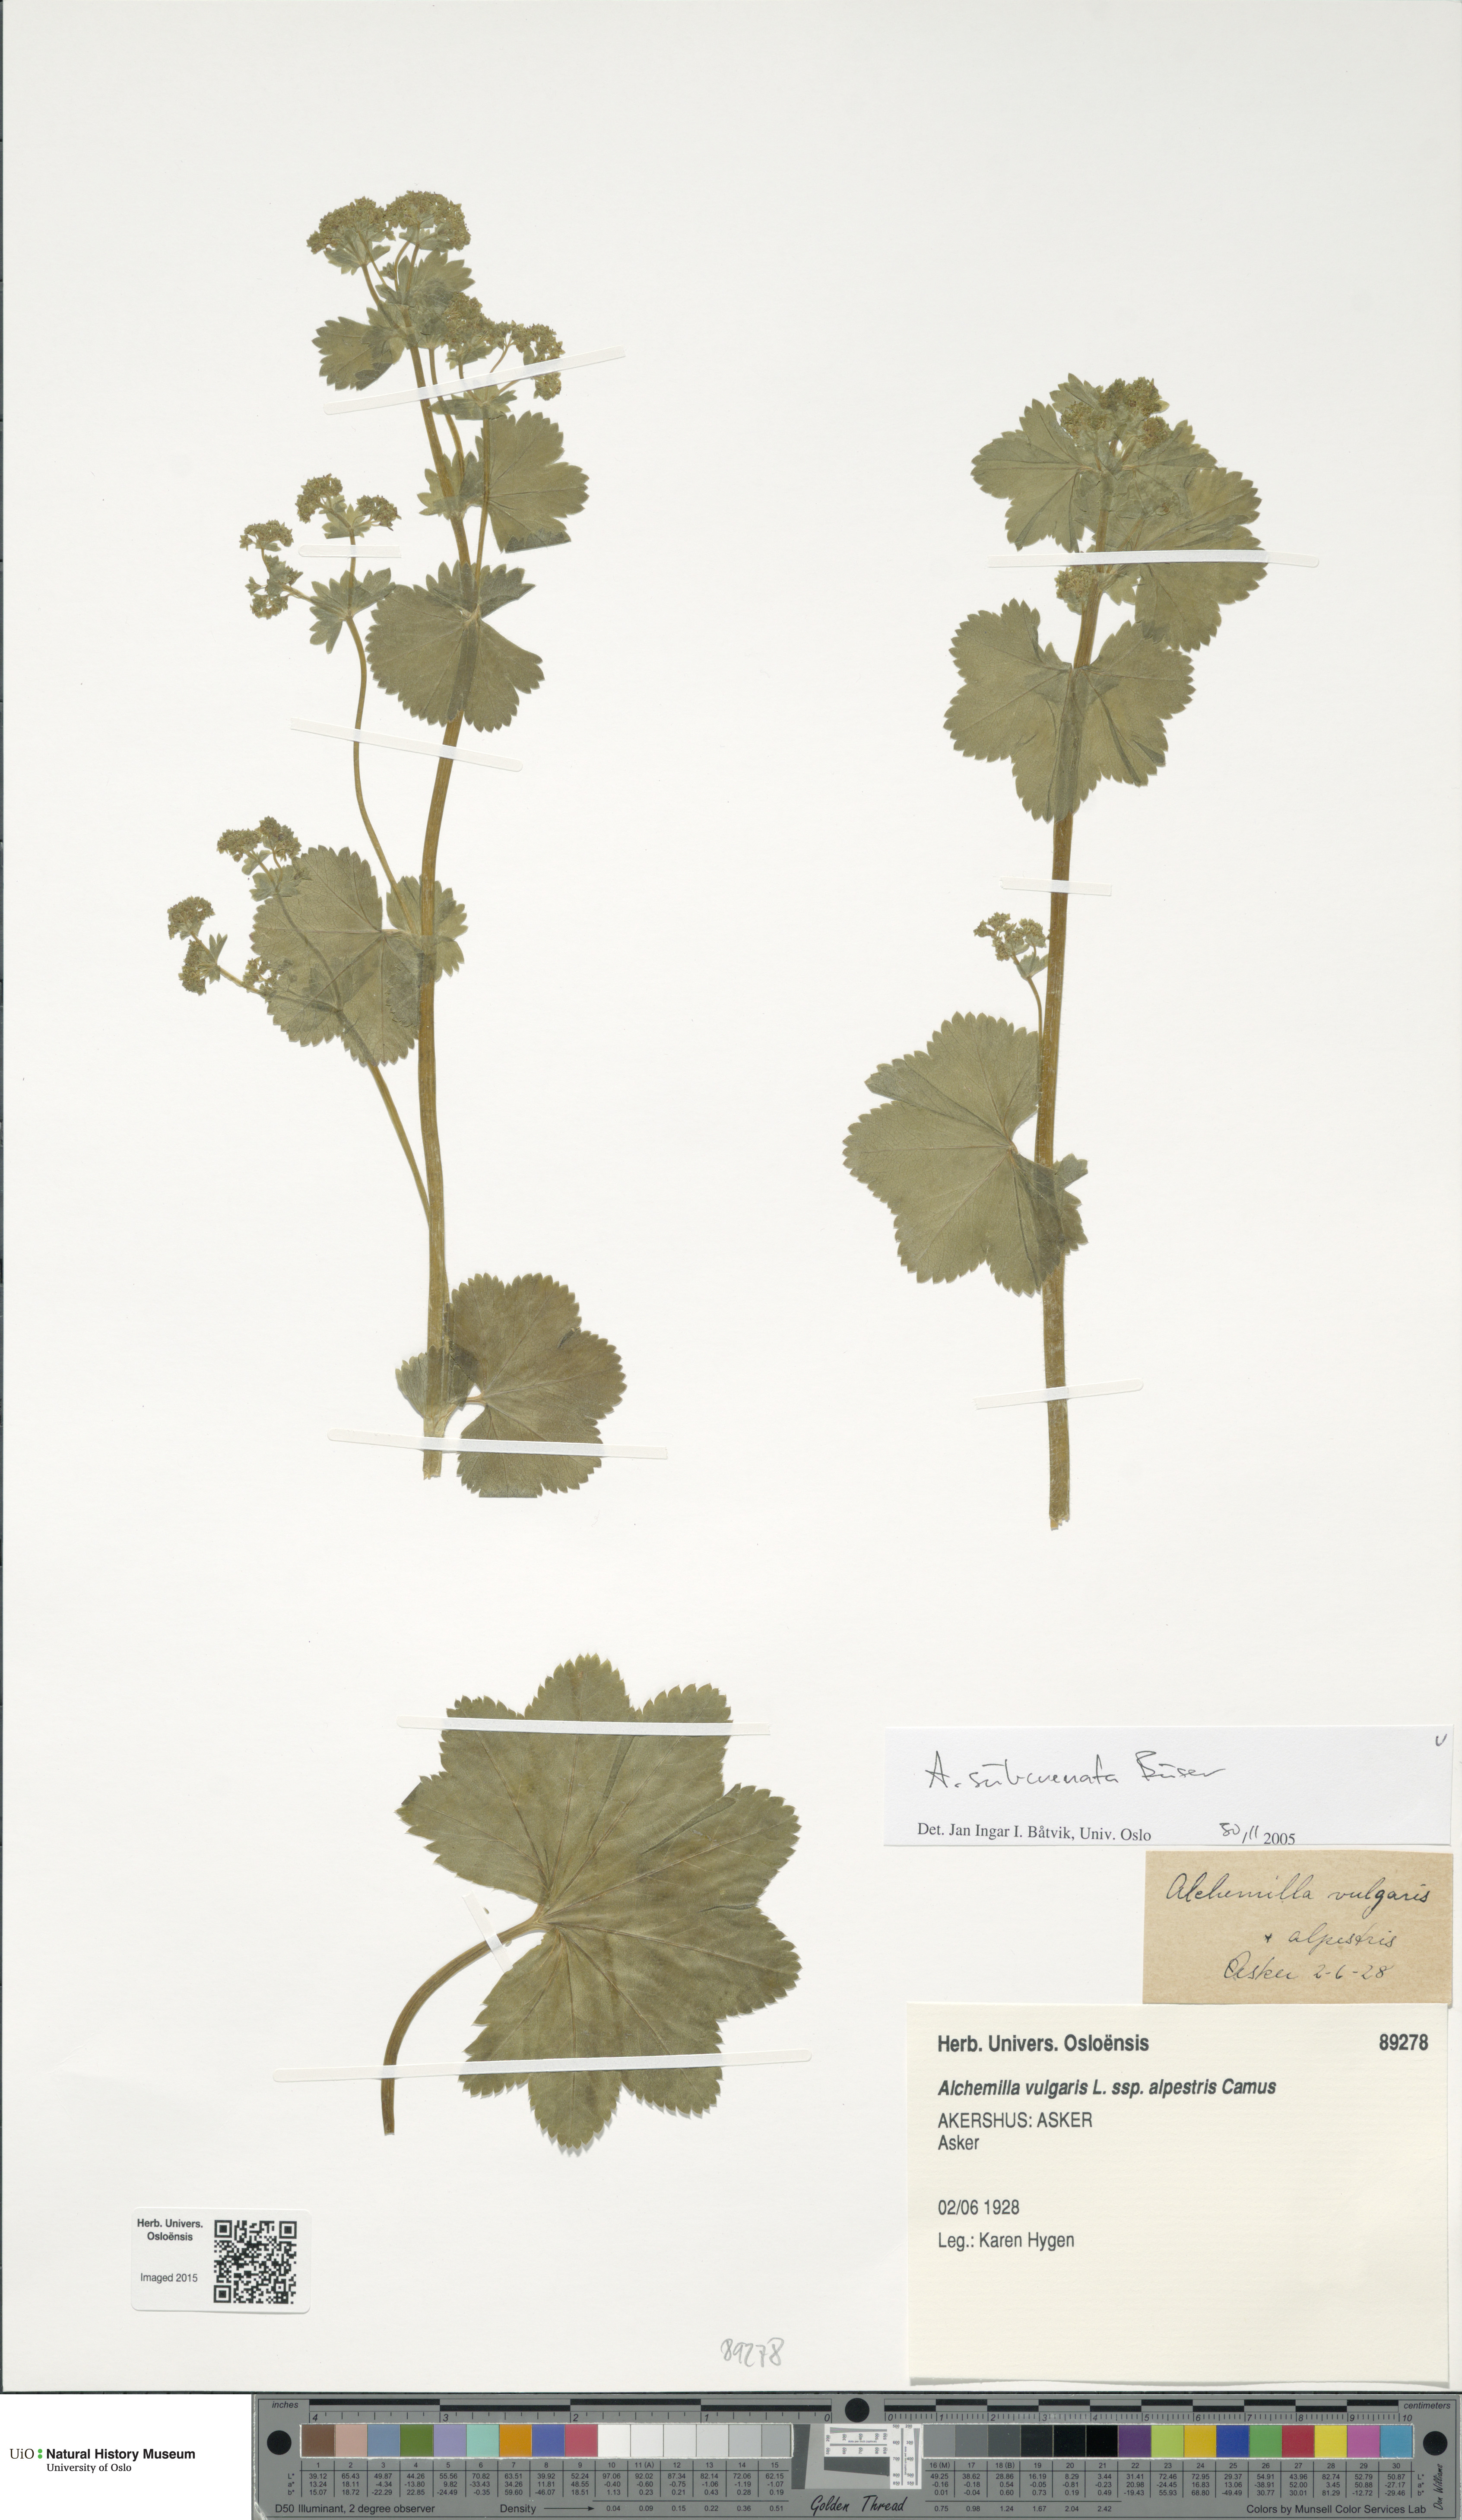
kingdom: Plantae
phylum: Tracheophyta
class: Magnoliopsida
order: Rosales
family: Rosaceae
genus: Alchemilla
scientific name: Alchemilla subcrenata
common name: Broadtooth lady's mantle
